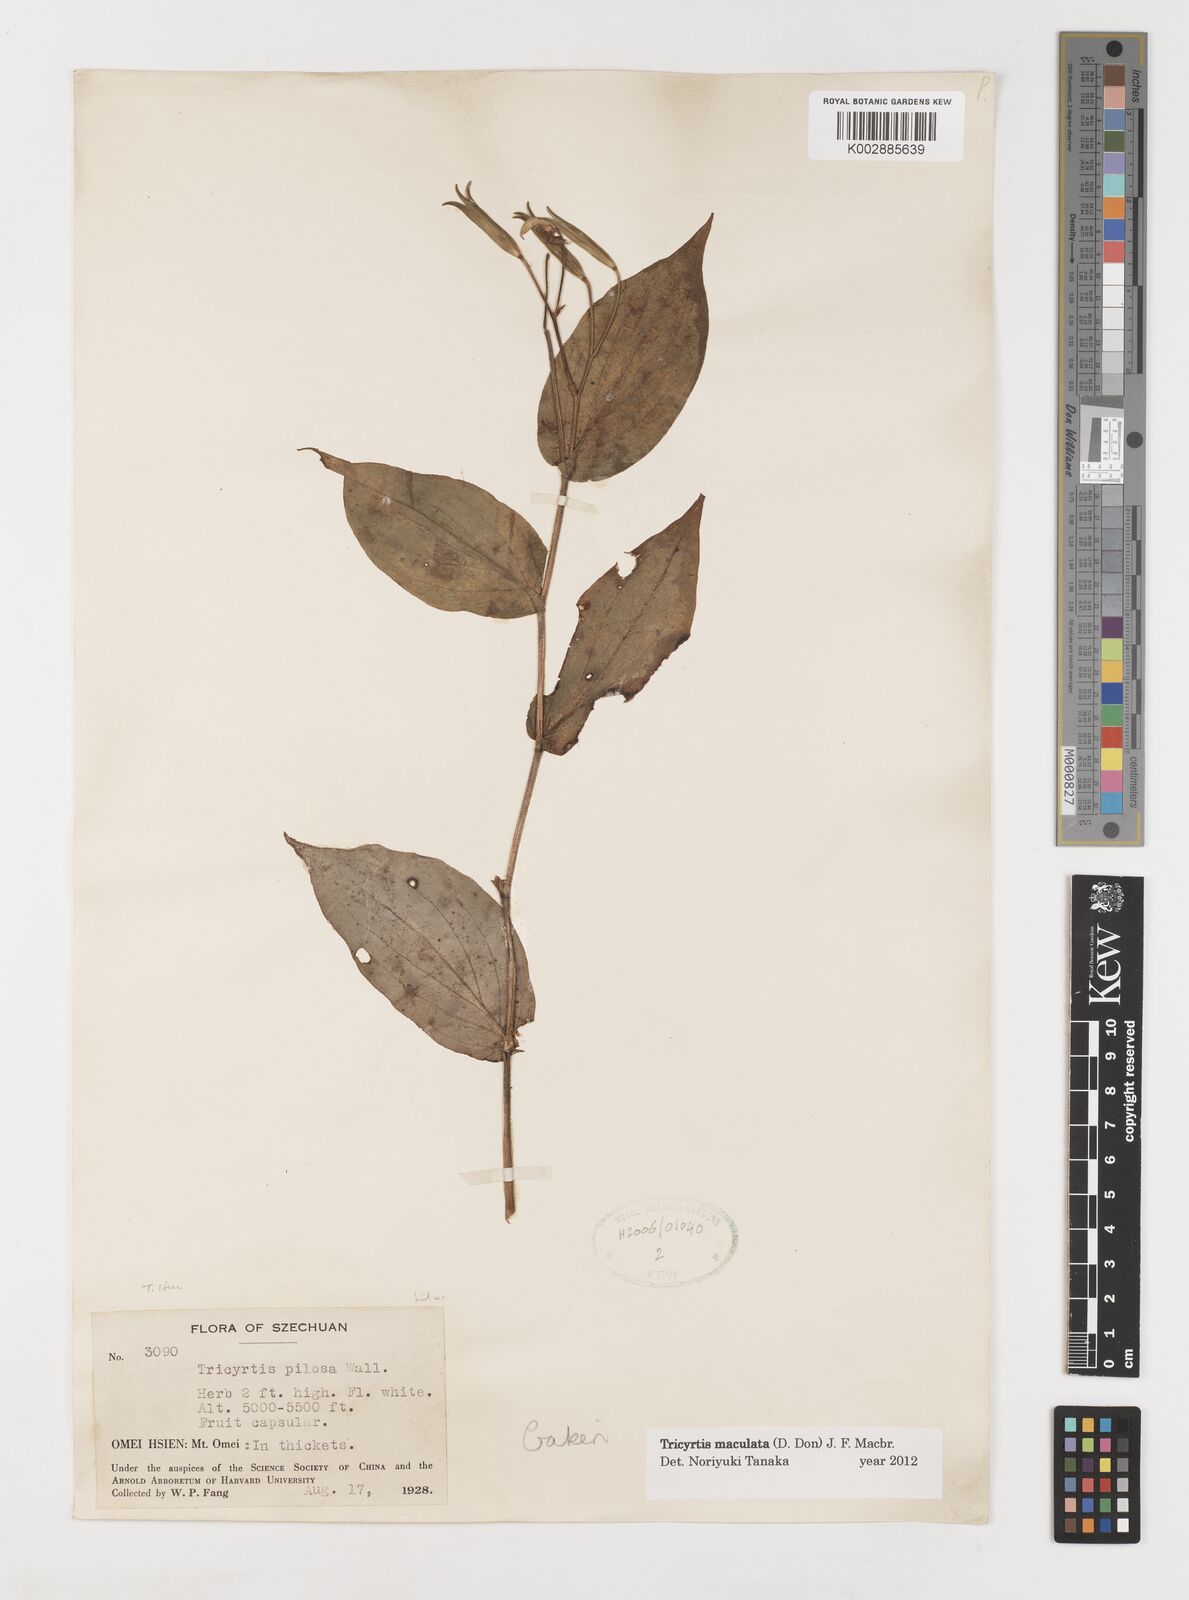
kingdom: Plantae
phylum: Tracheophyta
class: Liliopsida
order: Liliales
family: Liliaceae
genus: Tricyrtis
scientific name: Tricyrtis maculata
